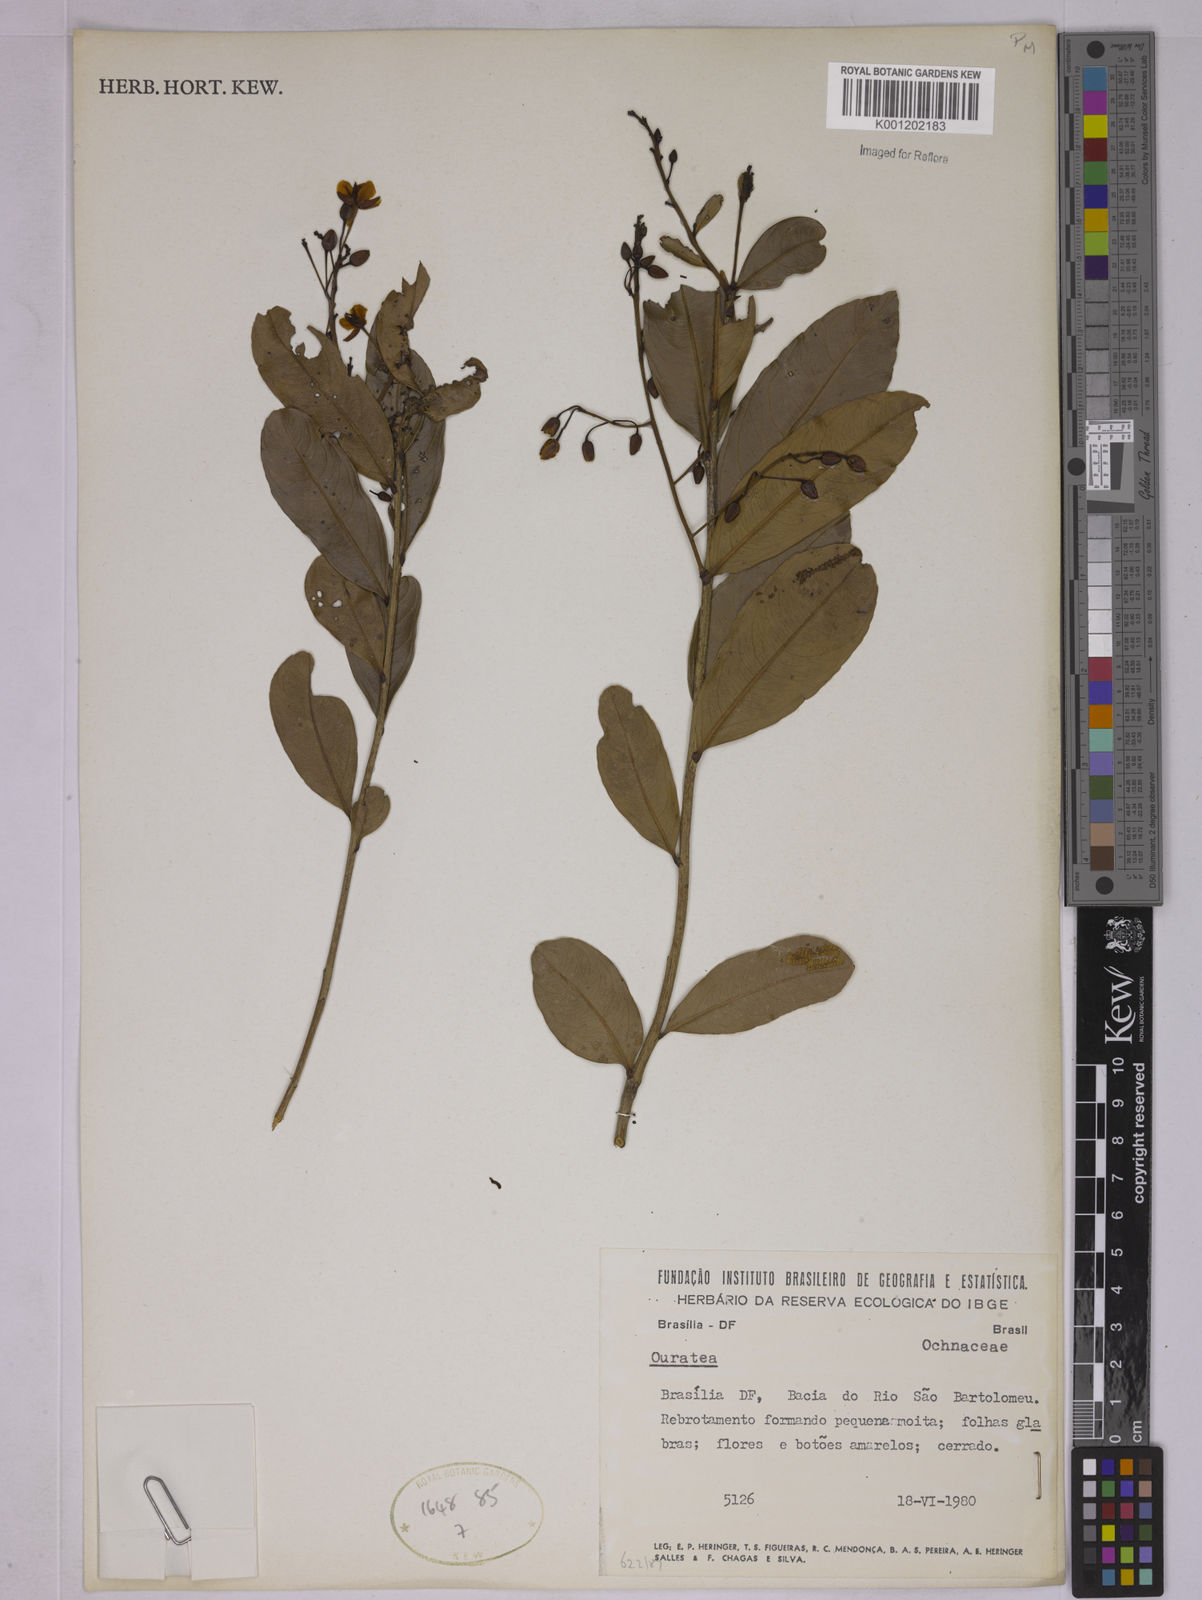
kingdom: Plantae
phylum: Tracheophyta
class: Magnoliopsida
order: Malpighiales
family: Ochnaceae
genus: Ouratea
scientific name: Ouratea
